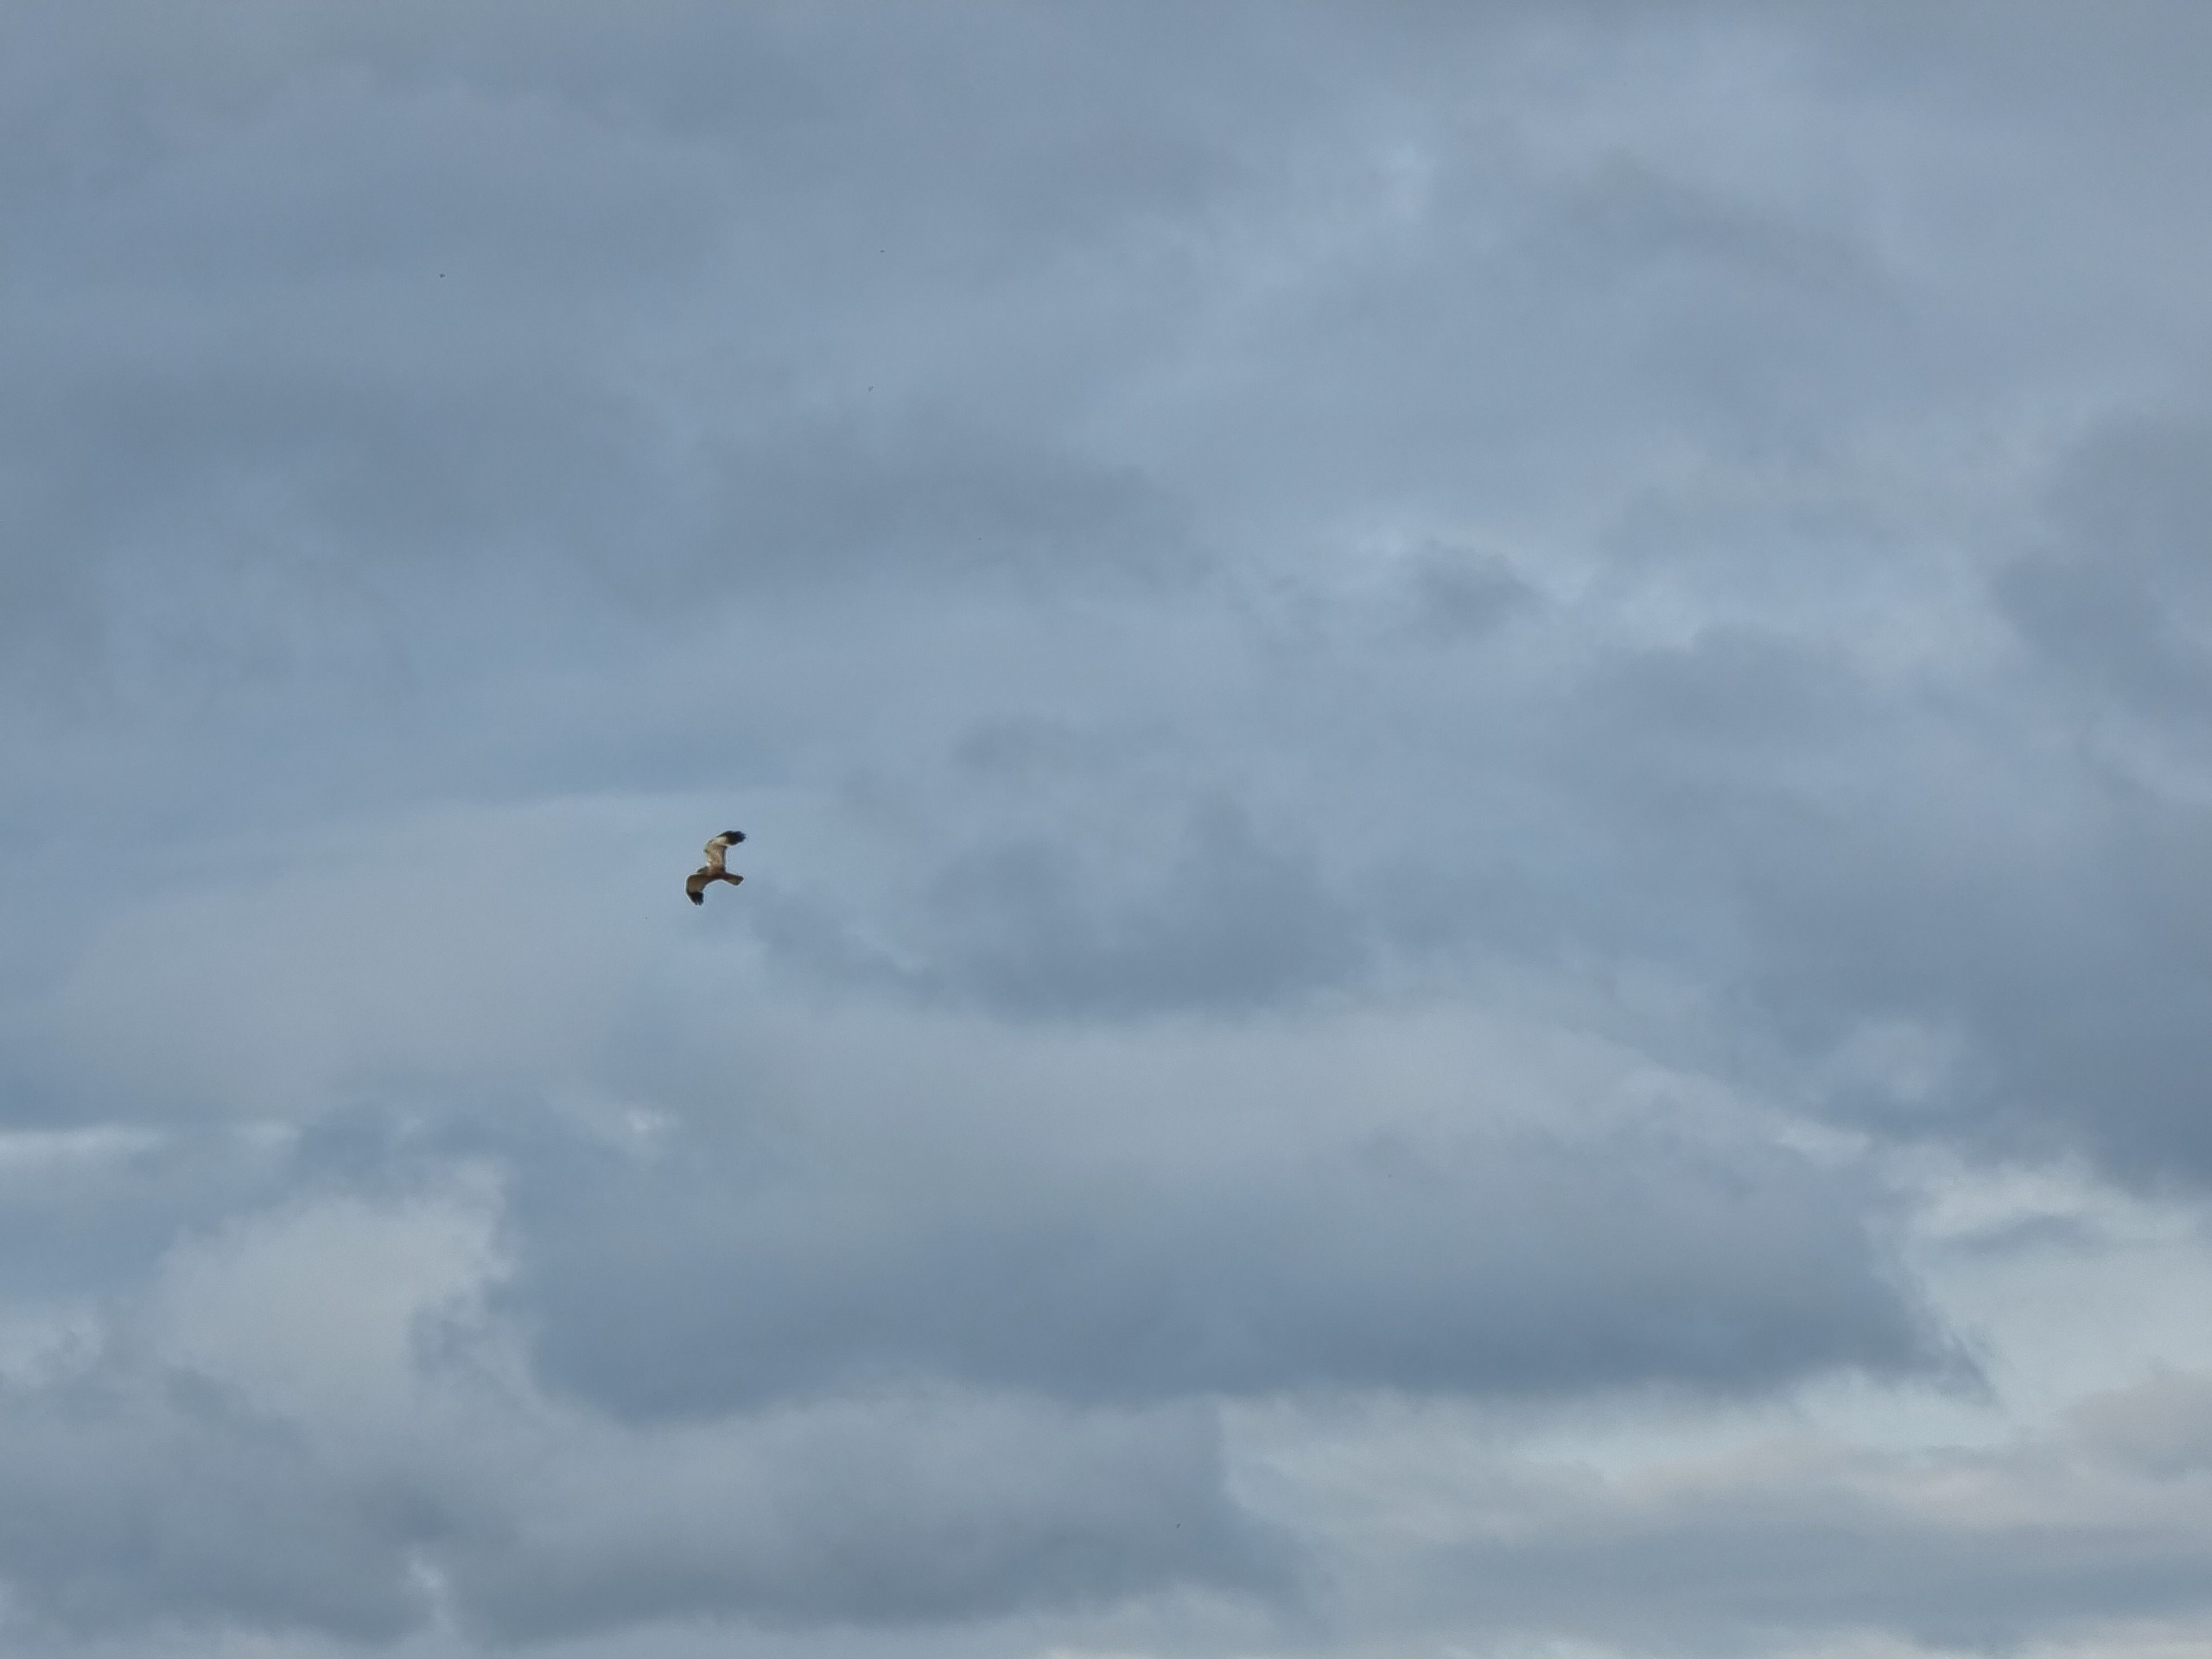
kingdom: Animalia
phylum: Chordata
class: Aves
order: Accipitriformes
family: Accipitridae
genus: Circus
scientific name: Circus aeruginosus
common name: Rørhøg
